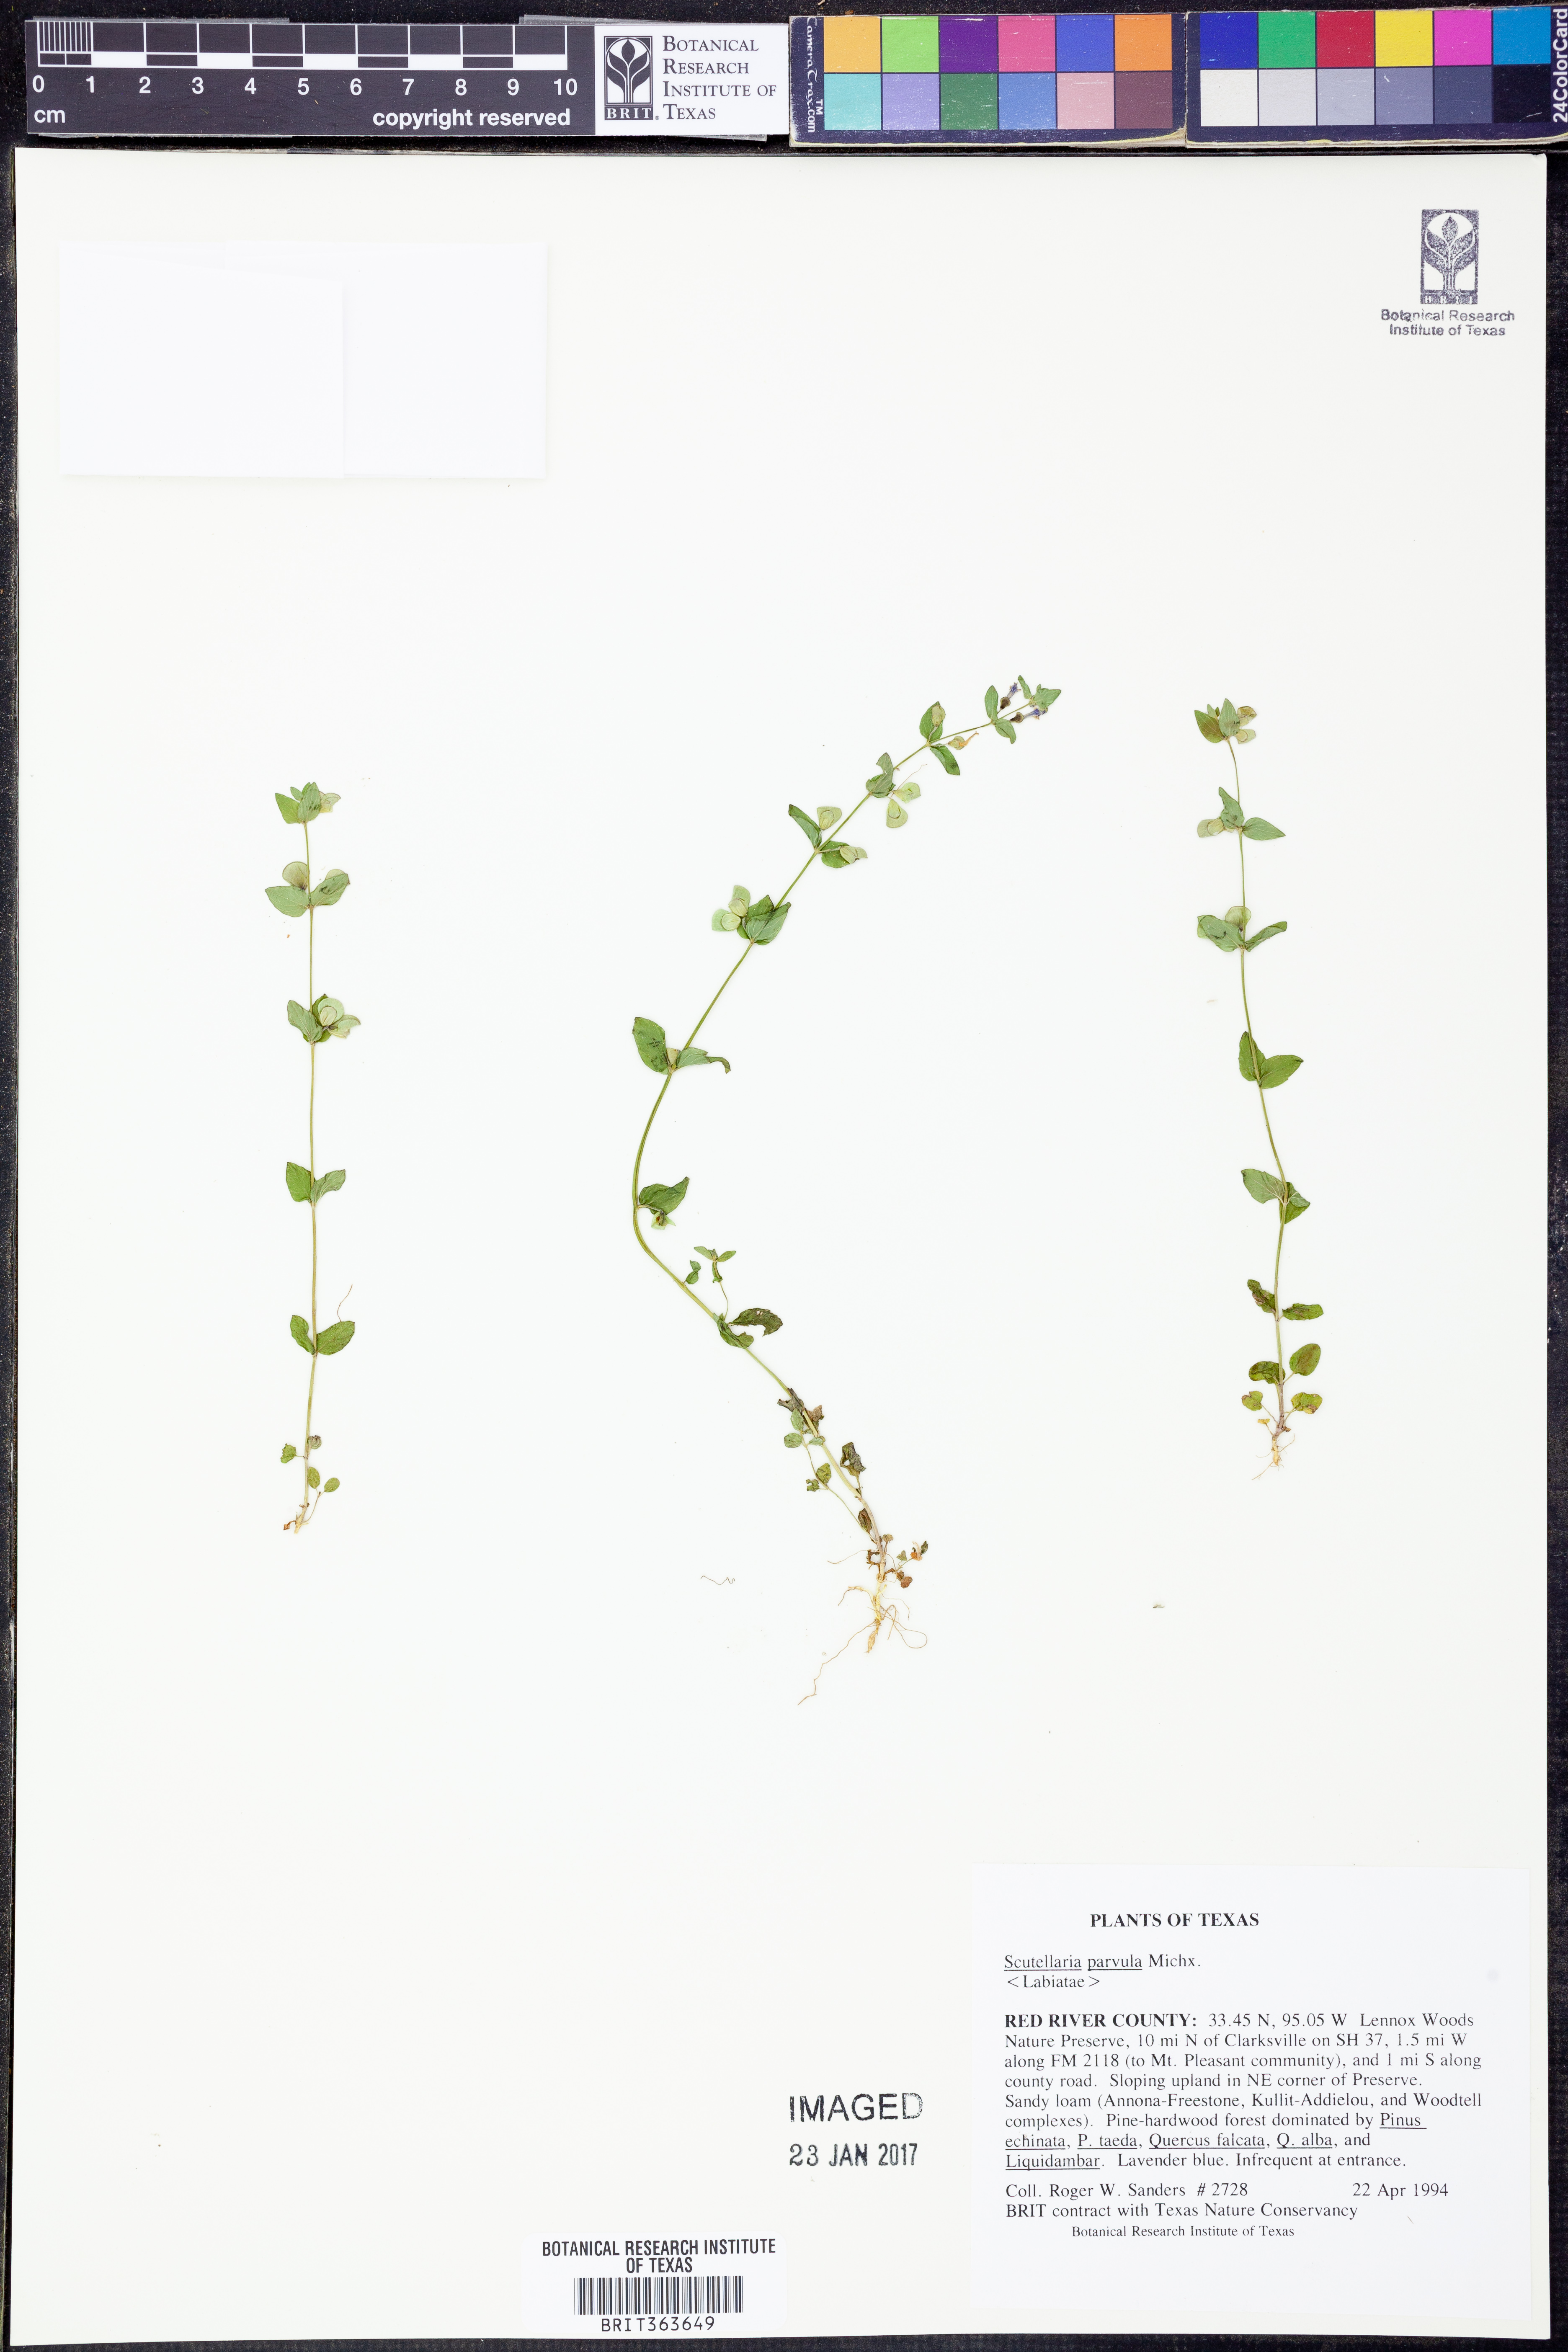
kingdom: Plantae
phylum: Tracheophyta
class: Magnoliopsida
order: Lamiales
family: Lamiaceae
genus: Scutellaria
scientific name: Scutellaria parvula
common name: Little scullcap
